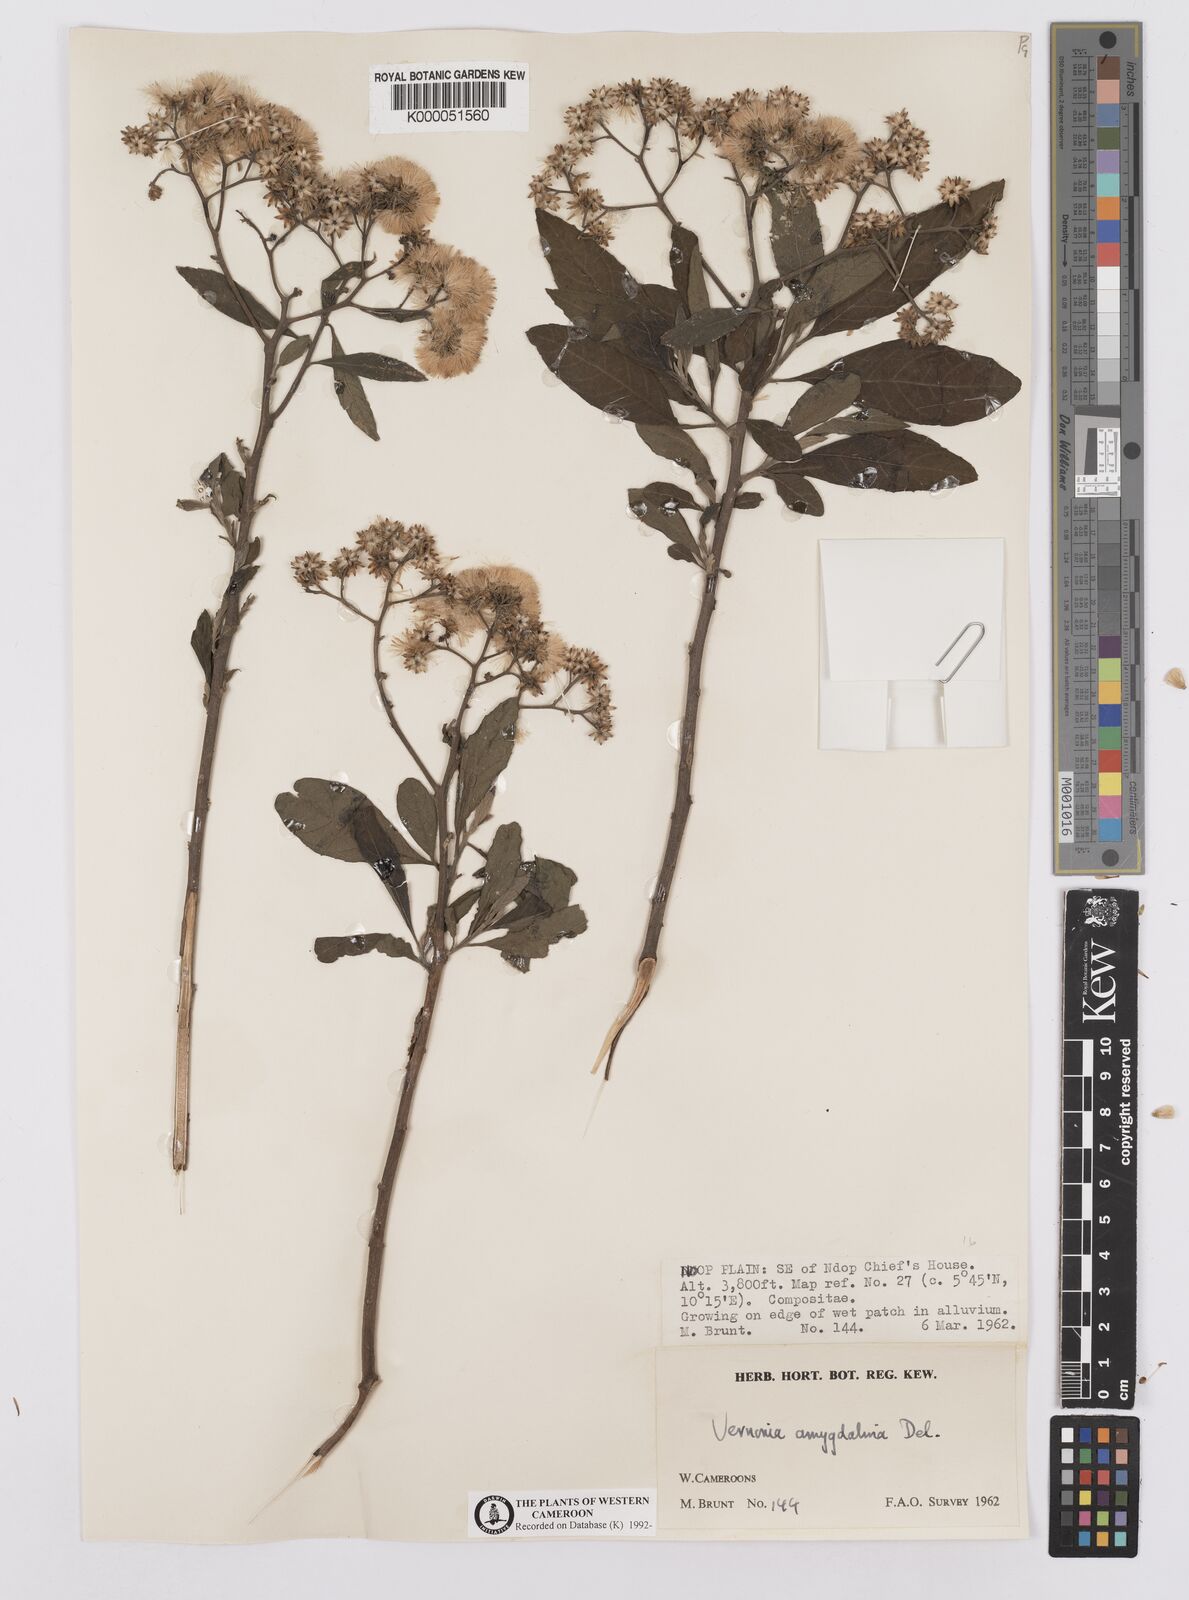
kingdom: Plantae
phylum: Tracheophyta
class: Magnoliopsida
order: Asterales
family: Asteraceae
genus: Gymnanthemum
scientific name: Gymnanthemum amygdalinum
